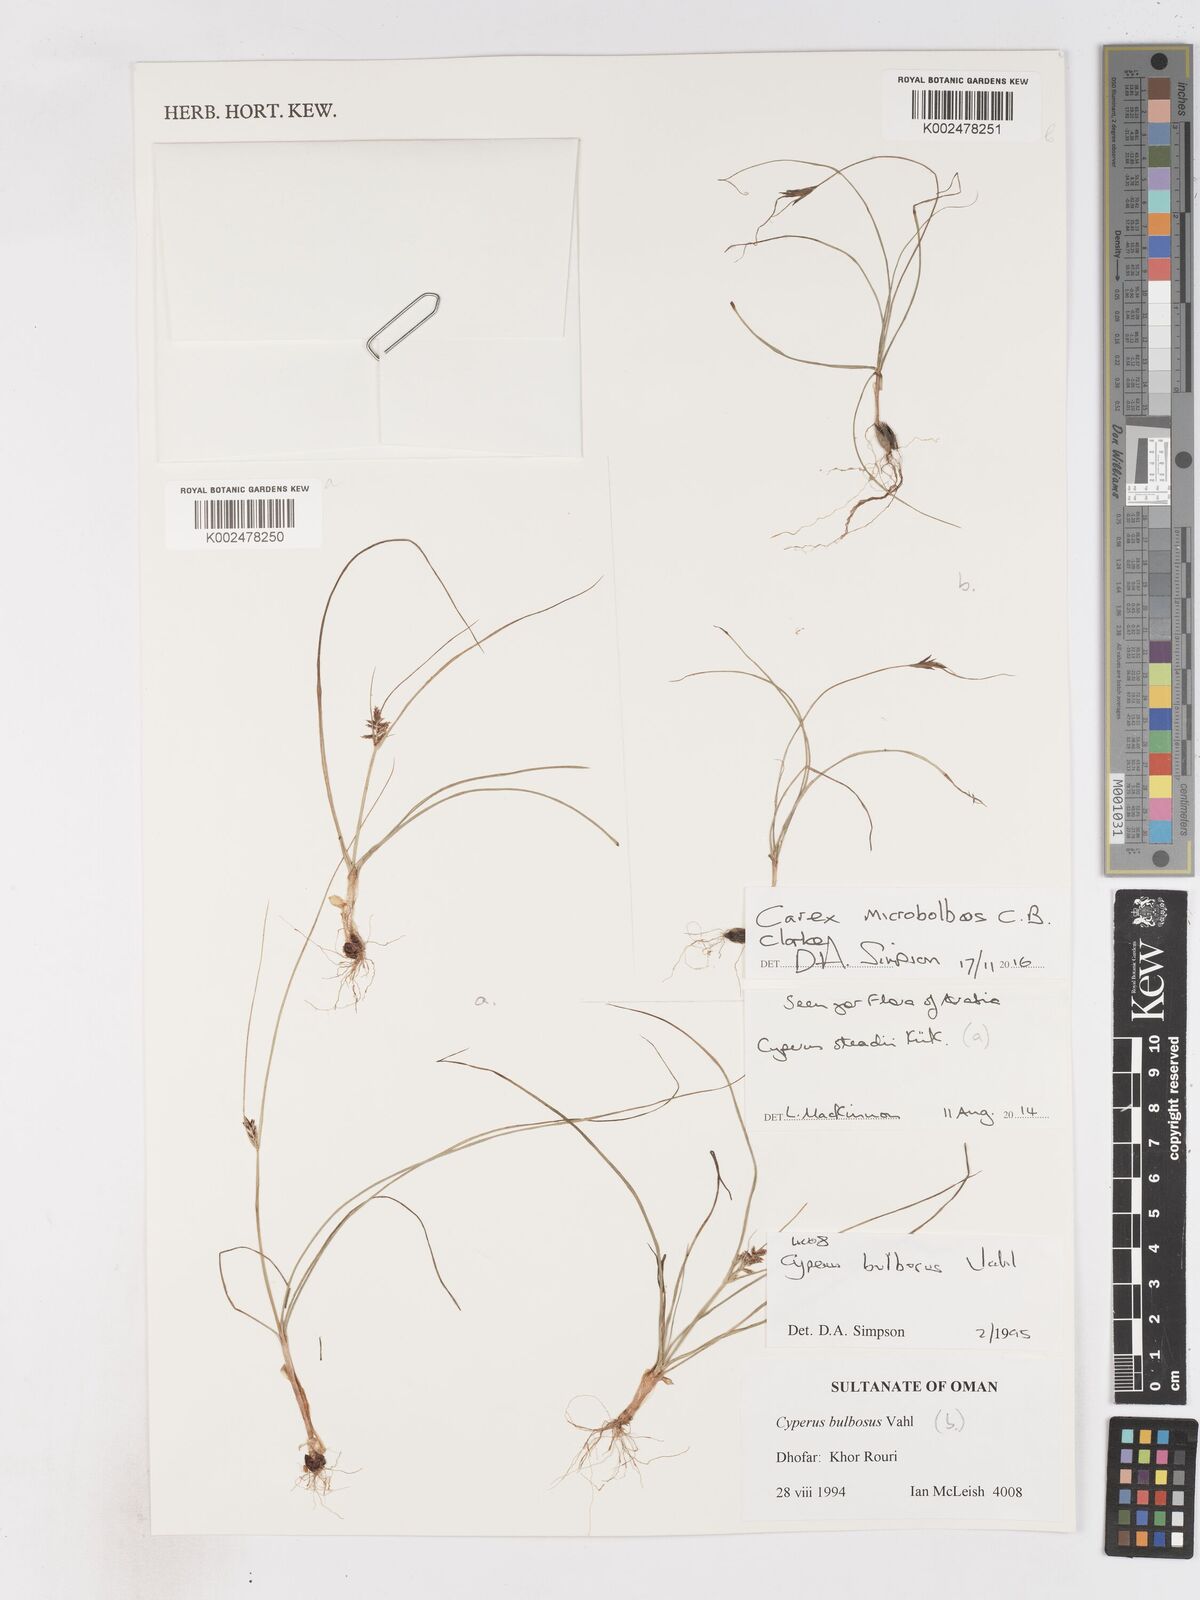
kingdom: Plantae
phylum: Tracheophyta
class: Liliopsida
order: Poales
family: Cyperaceae
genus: Cyperus
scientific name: Cyperus microbolbos
